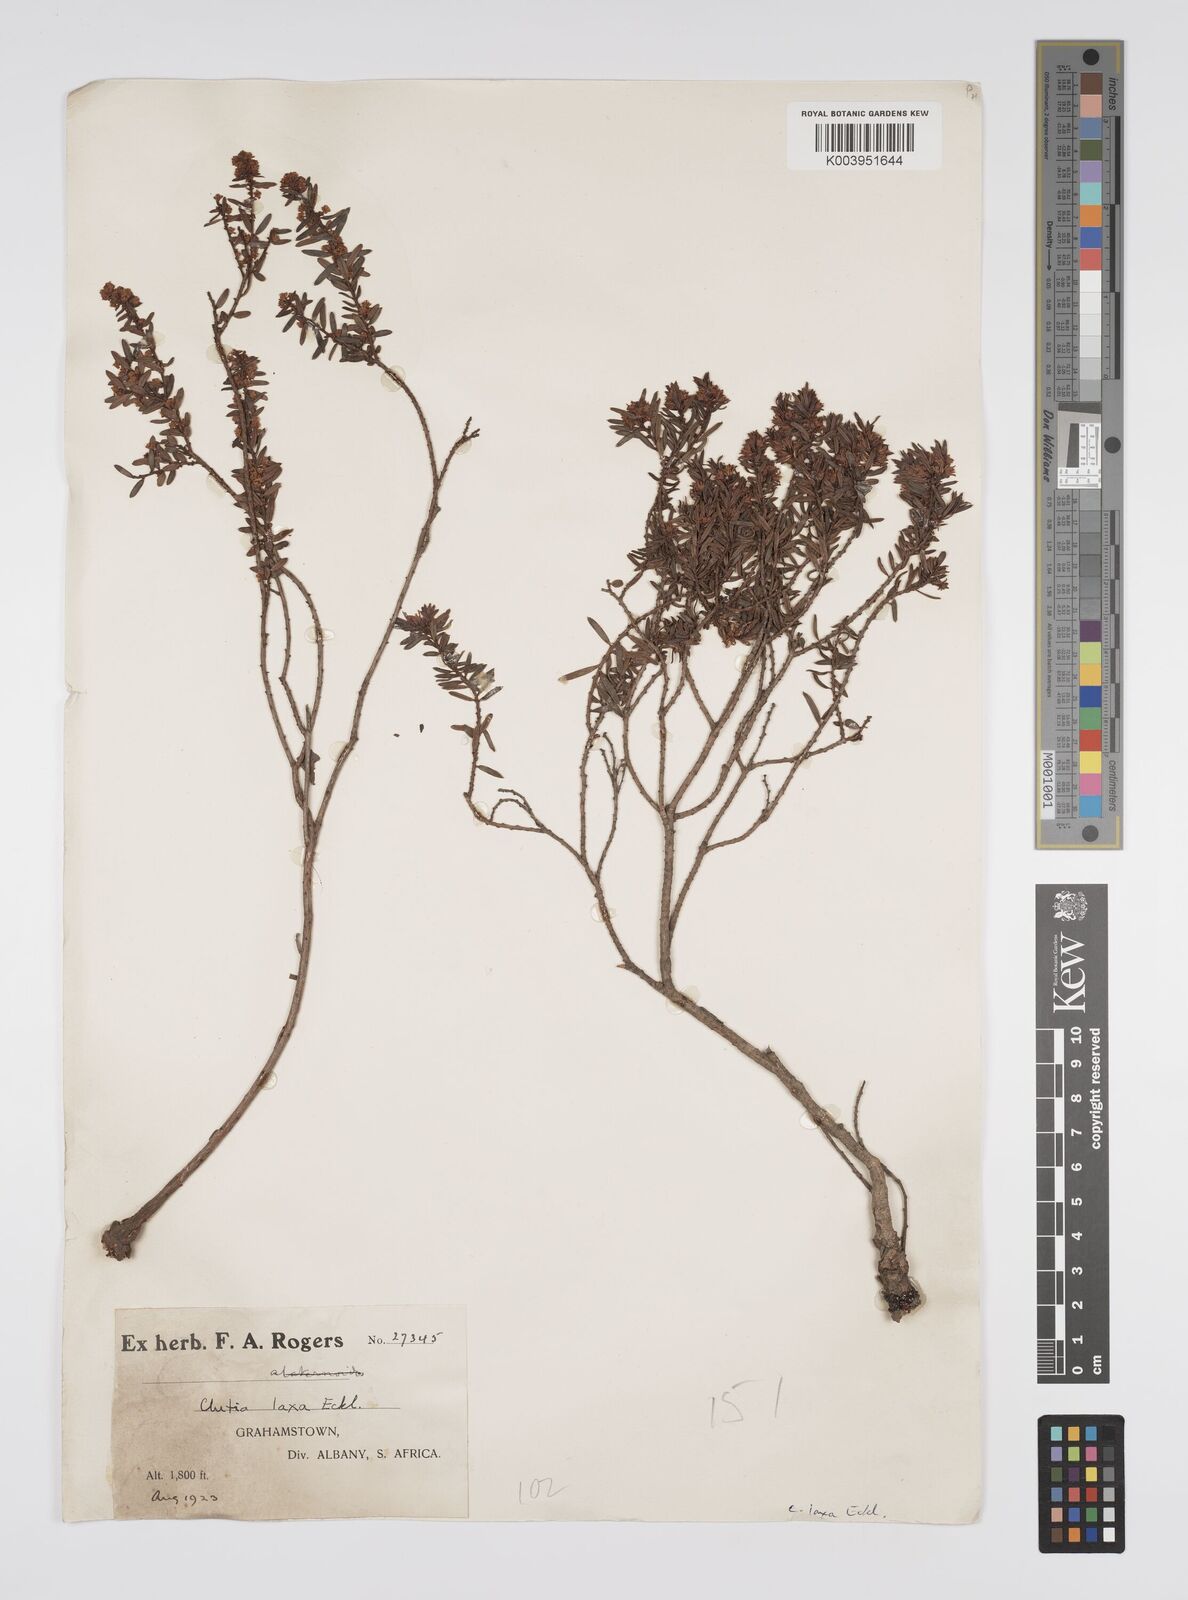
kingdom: Plantae
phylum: Tracheophyta
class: Magnoliopsida
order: Malpighiales
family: Peraceae
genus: Clutia
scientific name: Clutia laxa
